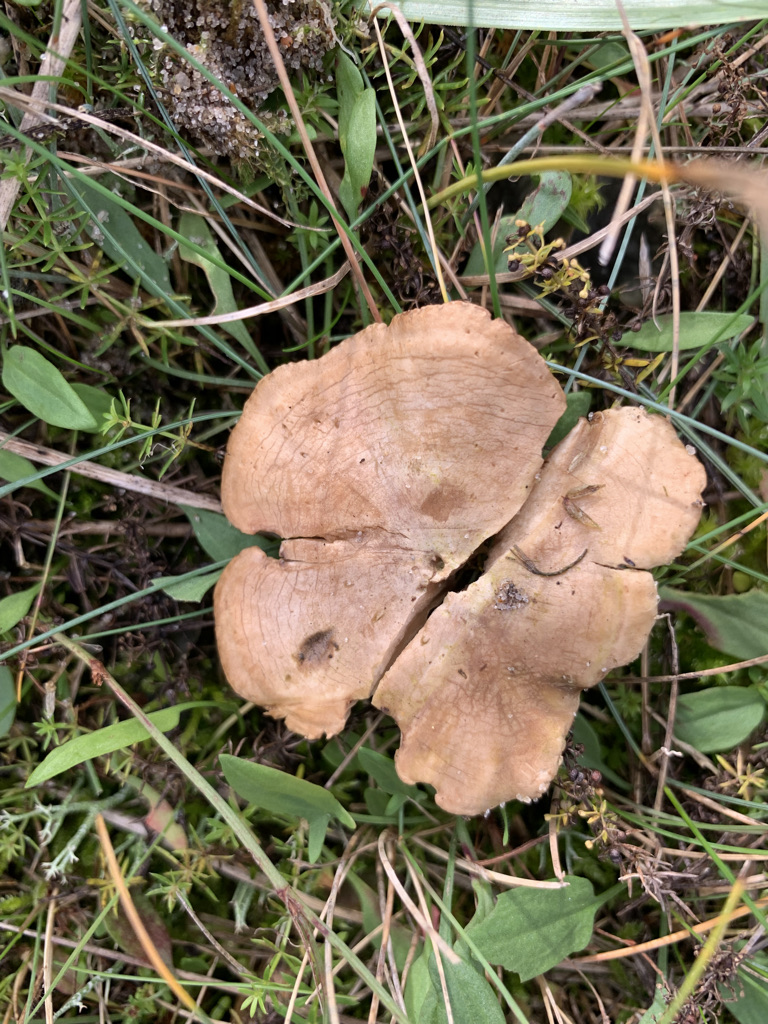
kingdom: Fungi
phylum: Basidiomycota
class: Agaricomycetes
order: Agaricales
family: Tricholomataceae
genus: Lulesia
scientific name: Lulesia
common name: sortnende troldhat
